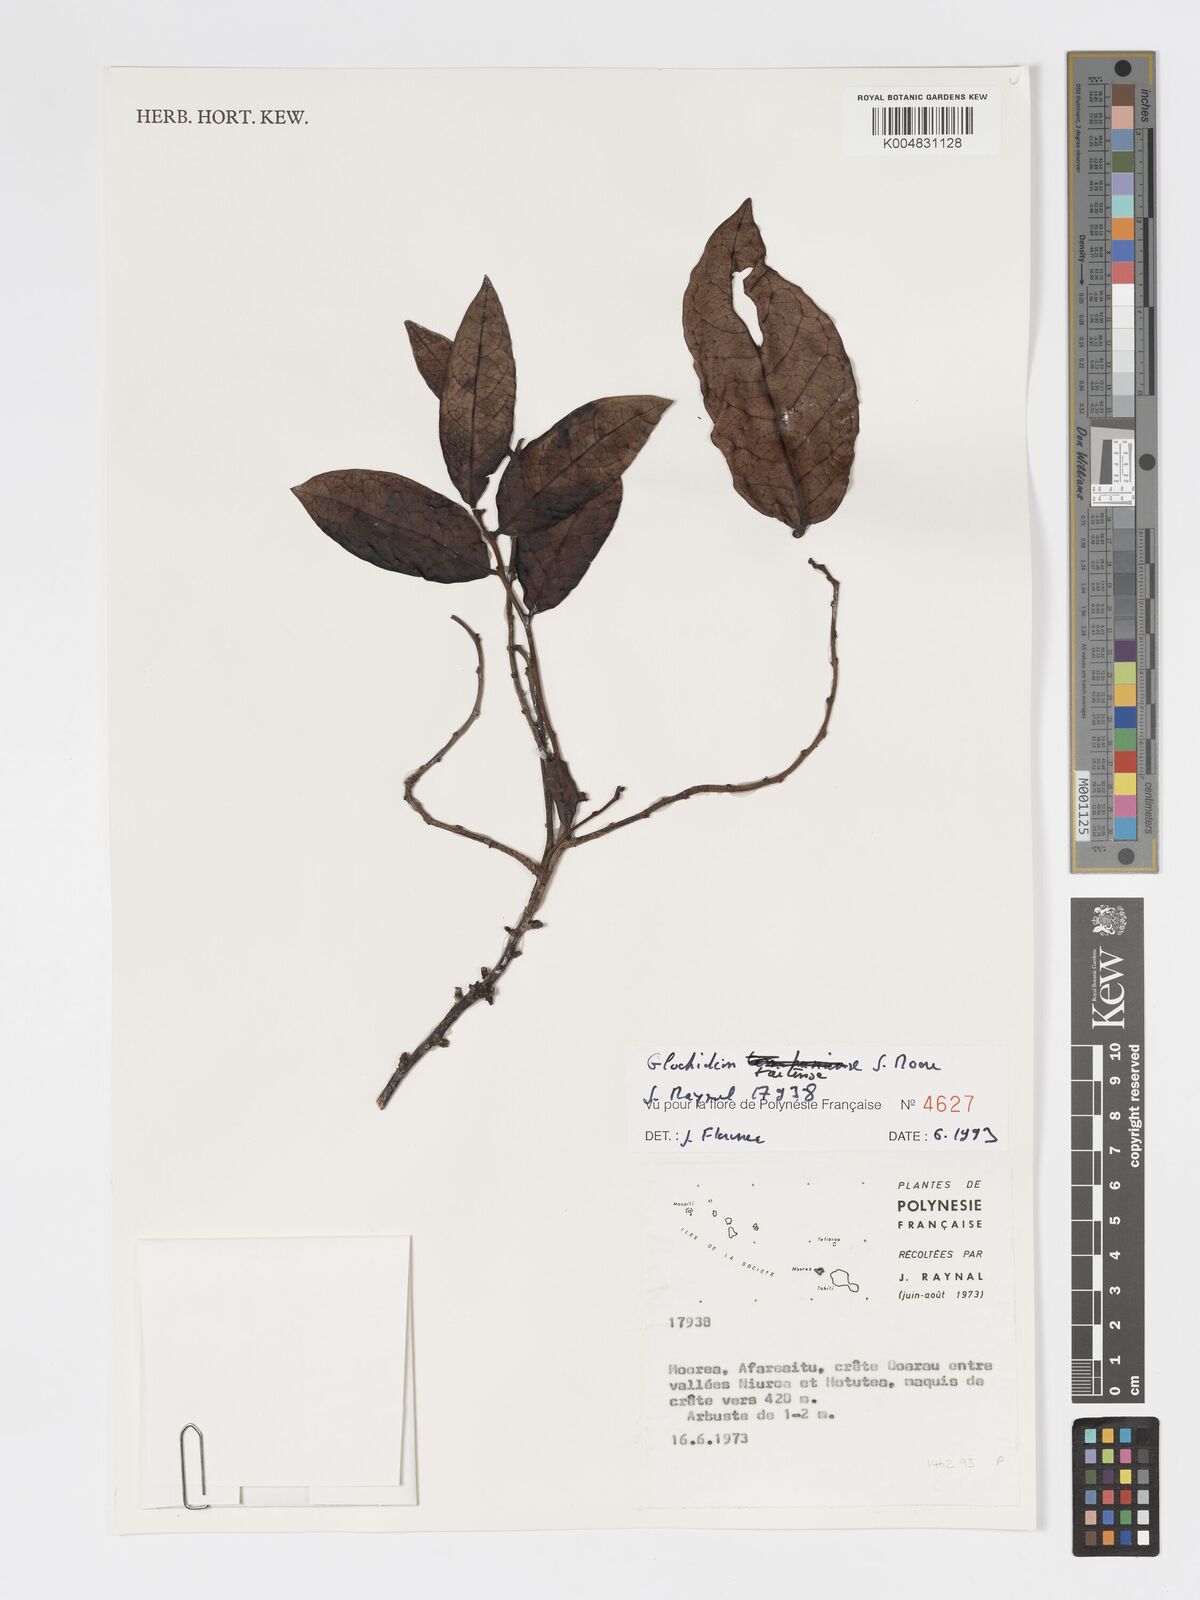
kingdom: Plantae
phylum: Tracheophyta
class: Magnoliopsida
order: Malpighiales
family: Phyllanthaceae
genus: Glochidion
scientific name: Glochidion taitense
